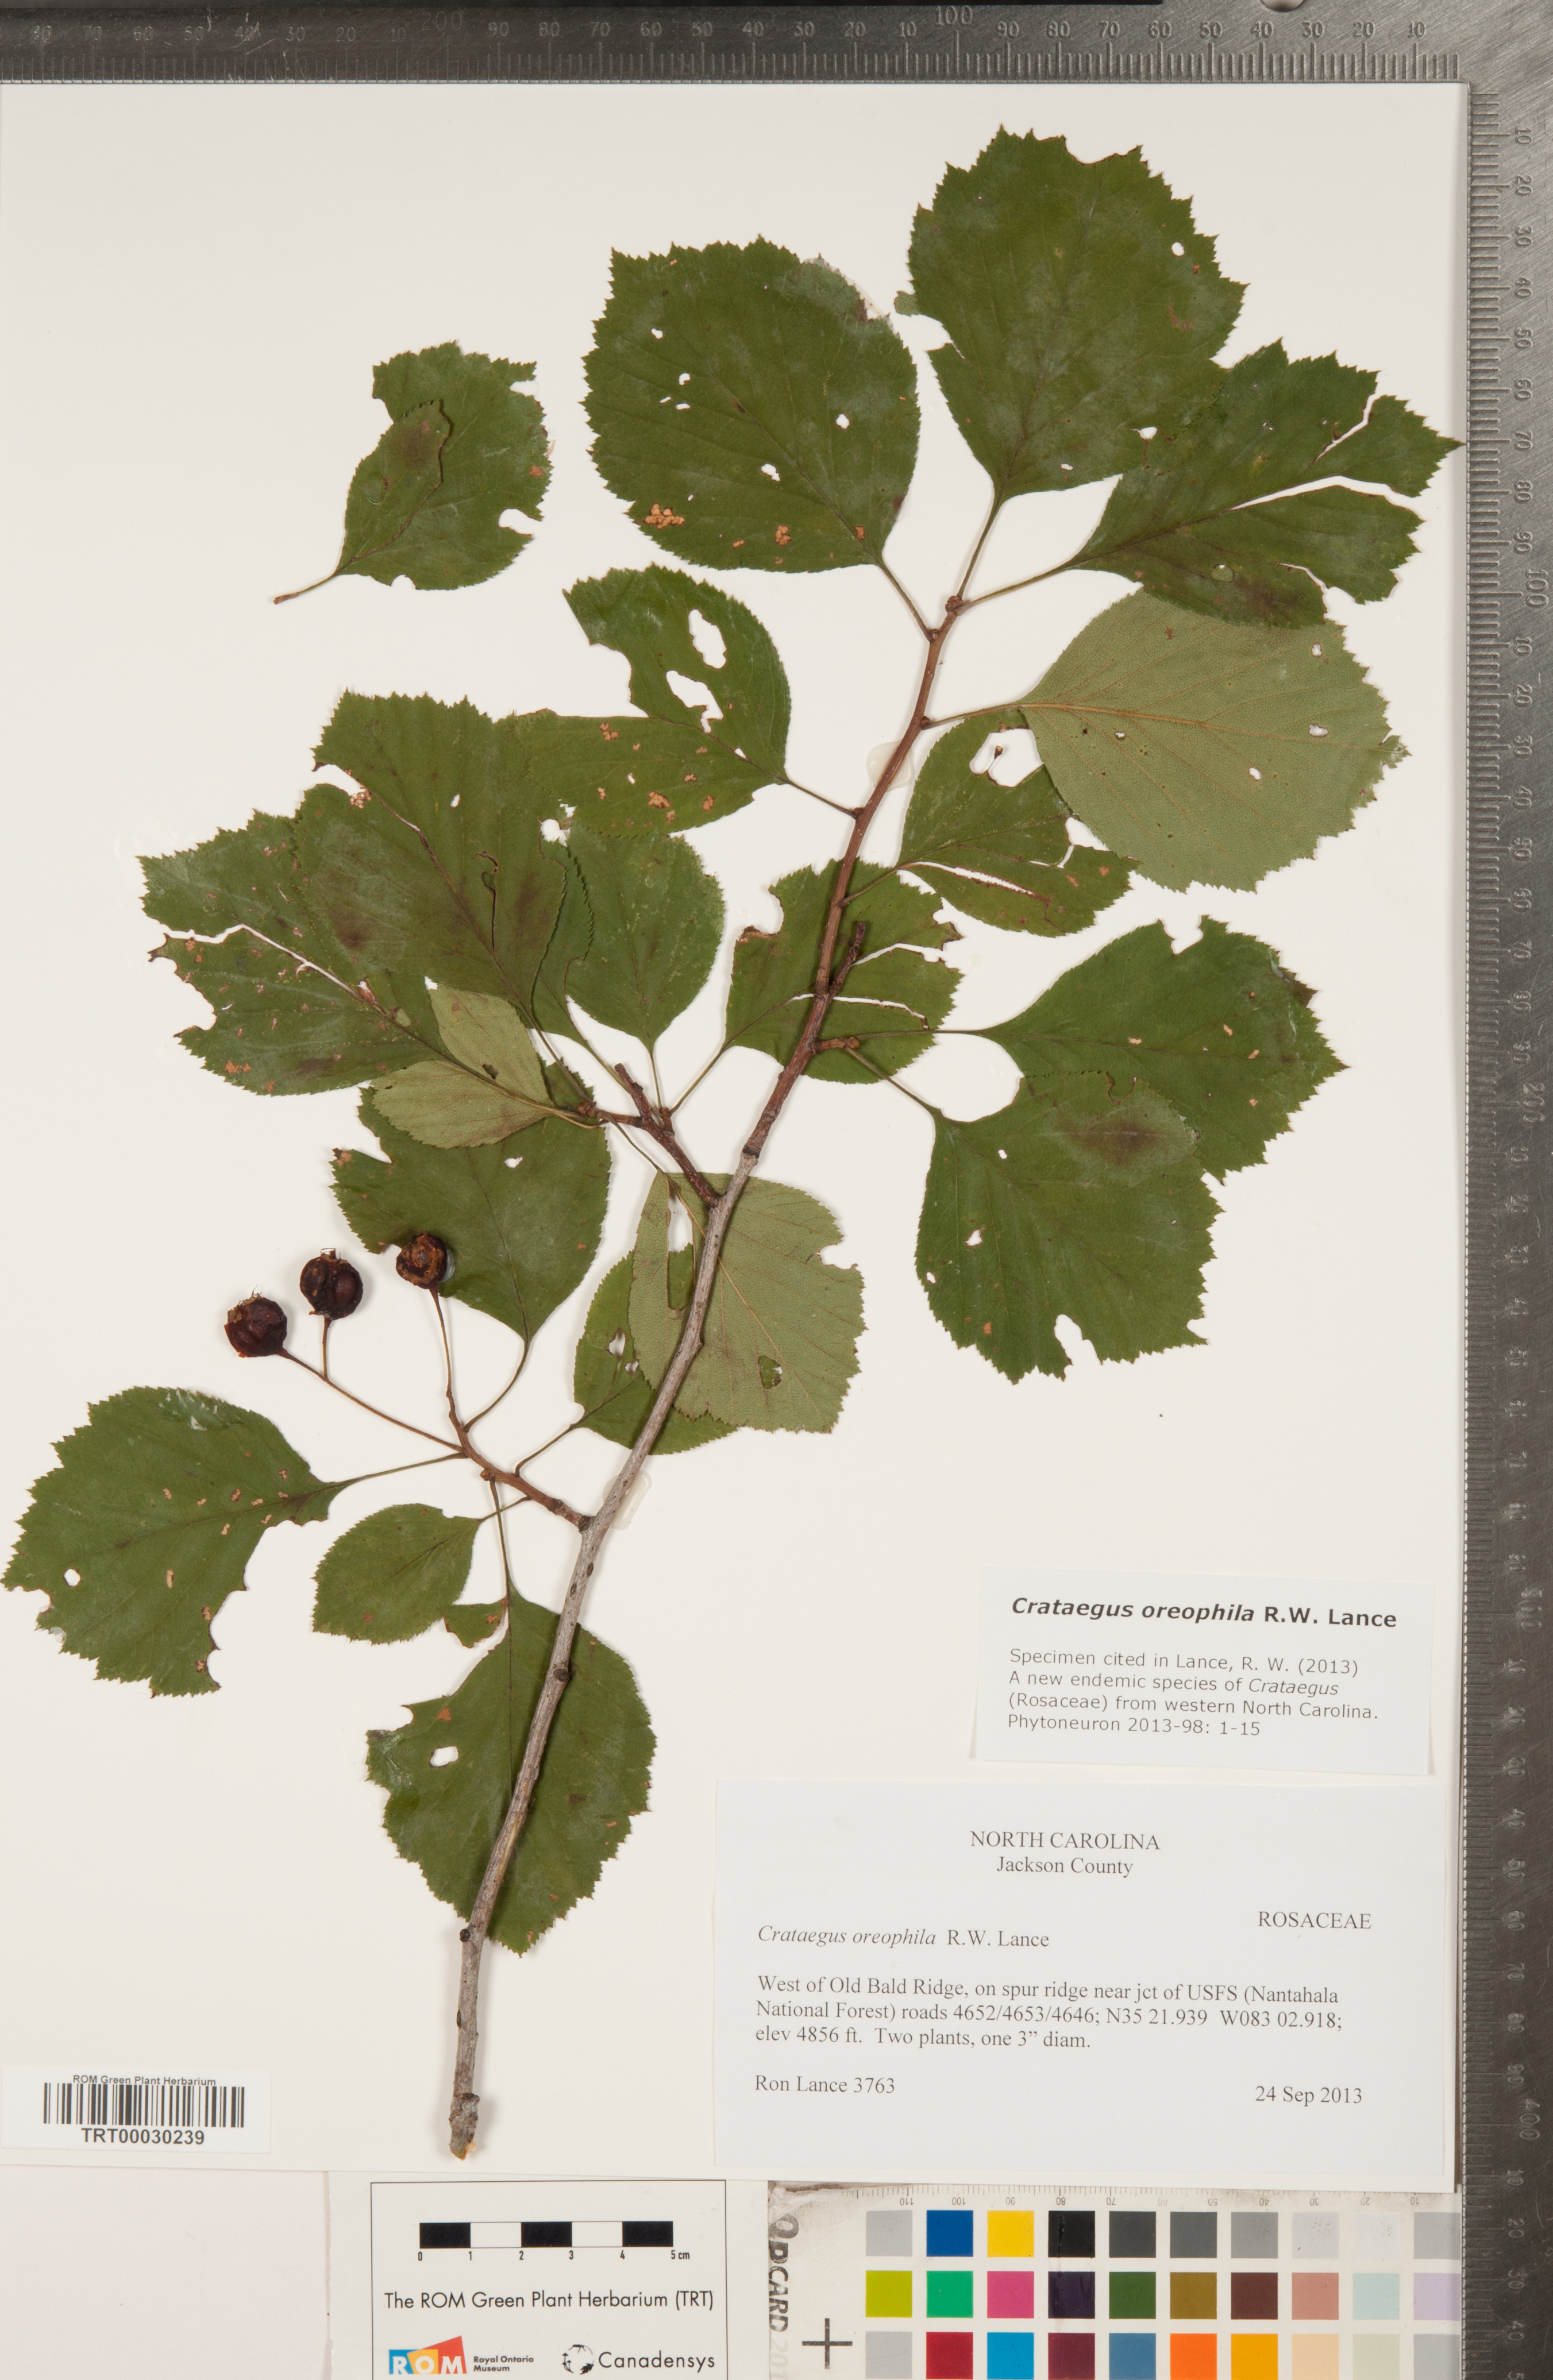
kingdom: Plantae
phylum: Tracheophyta
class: Magnoliopsida
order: Rosales
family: Rosaceae
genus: Crataegus
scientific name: Crataegus oreophila
